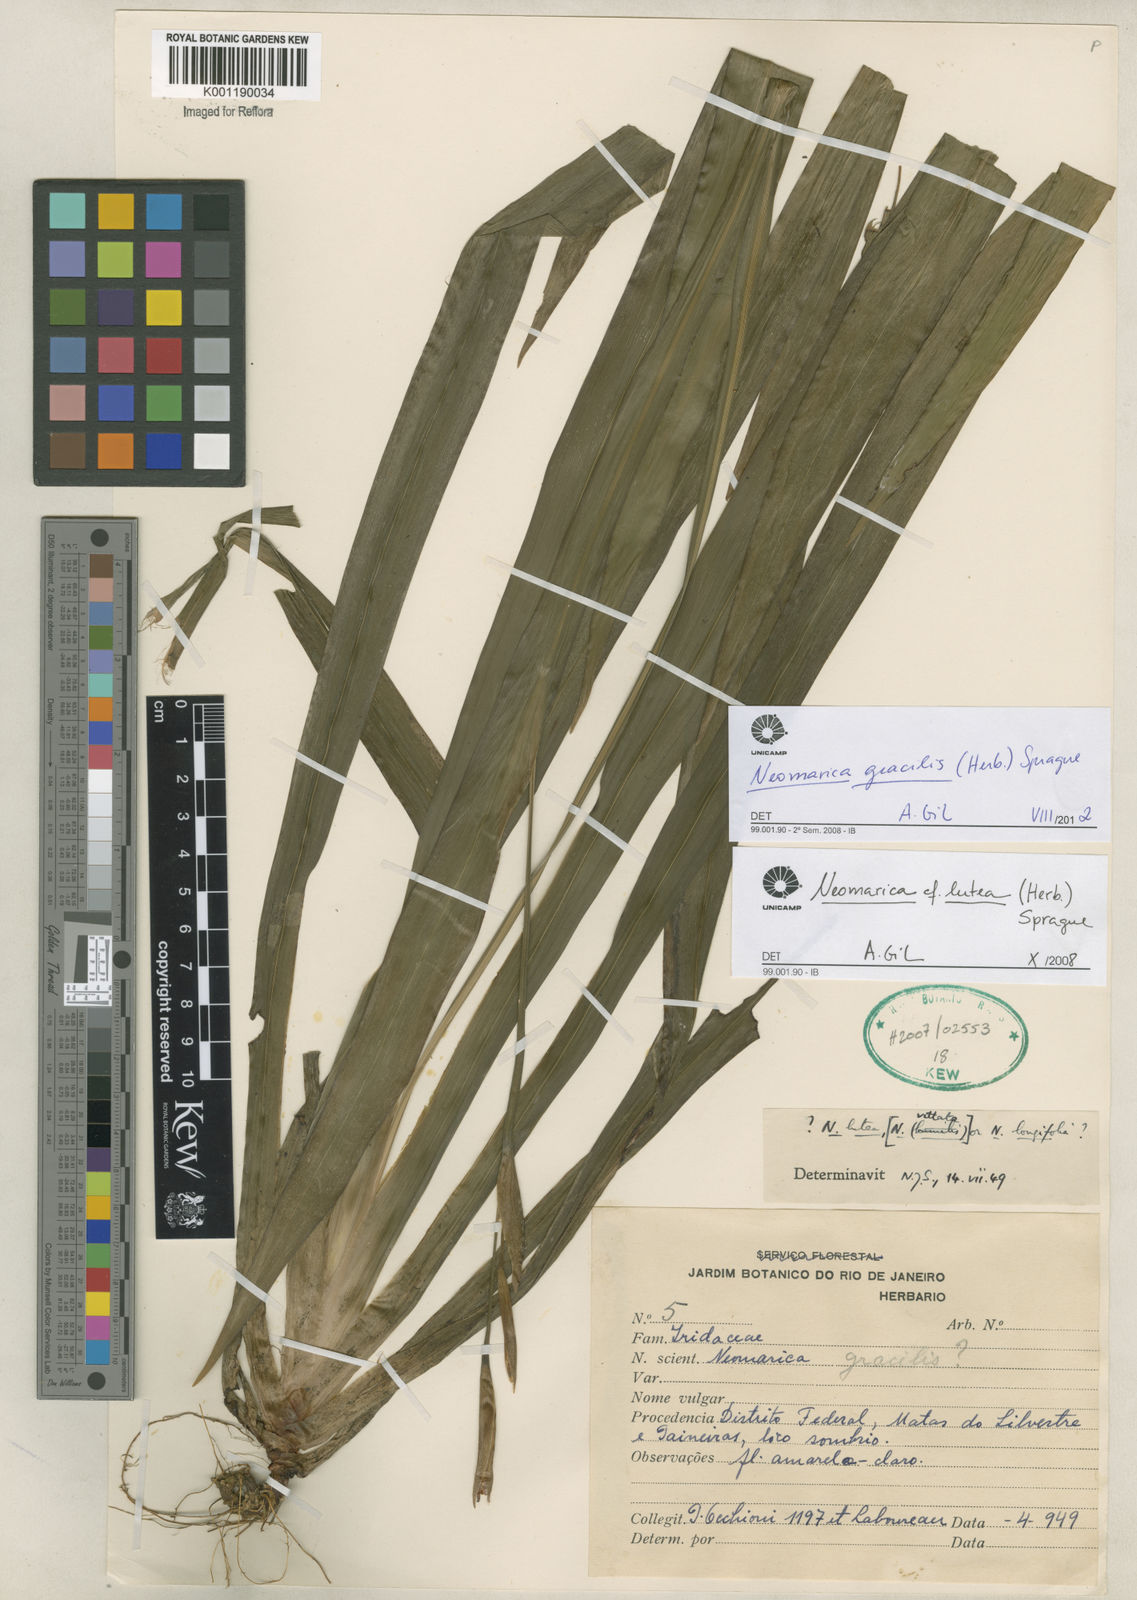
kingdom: Plantae
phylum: Tracheophyta
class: Liliopsida
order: Asparagales
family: Iridaceae
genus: Trimezia
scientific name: Trimezia gracilis
